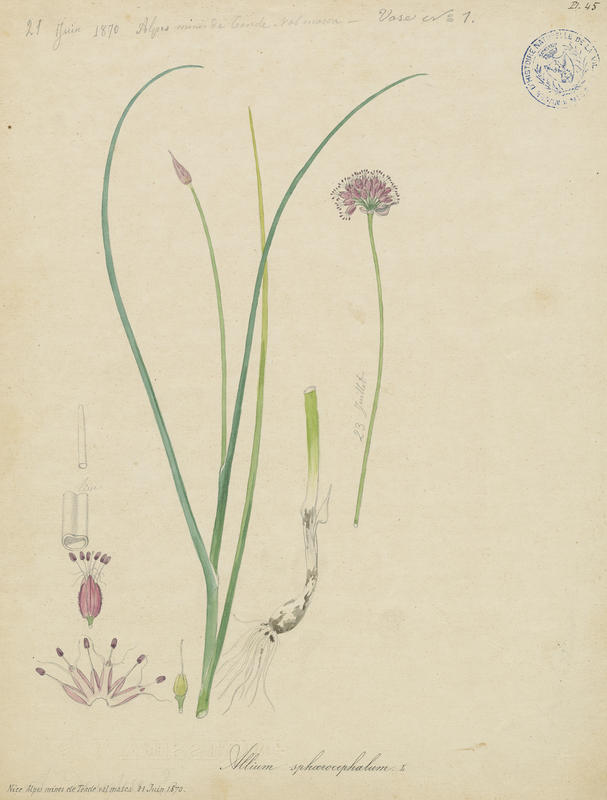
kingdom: Plantae
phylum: Tracheophyta
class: Liliopsida
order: Asparagales
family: Amaryllidaceae
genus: Allium
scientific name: Allium sphaerocephalon
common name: Round-headed leek
